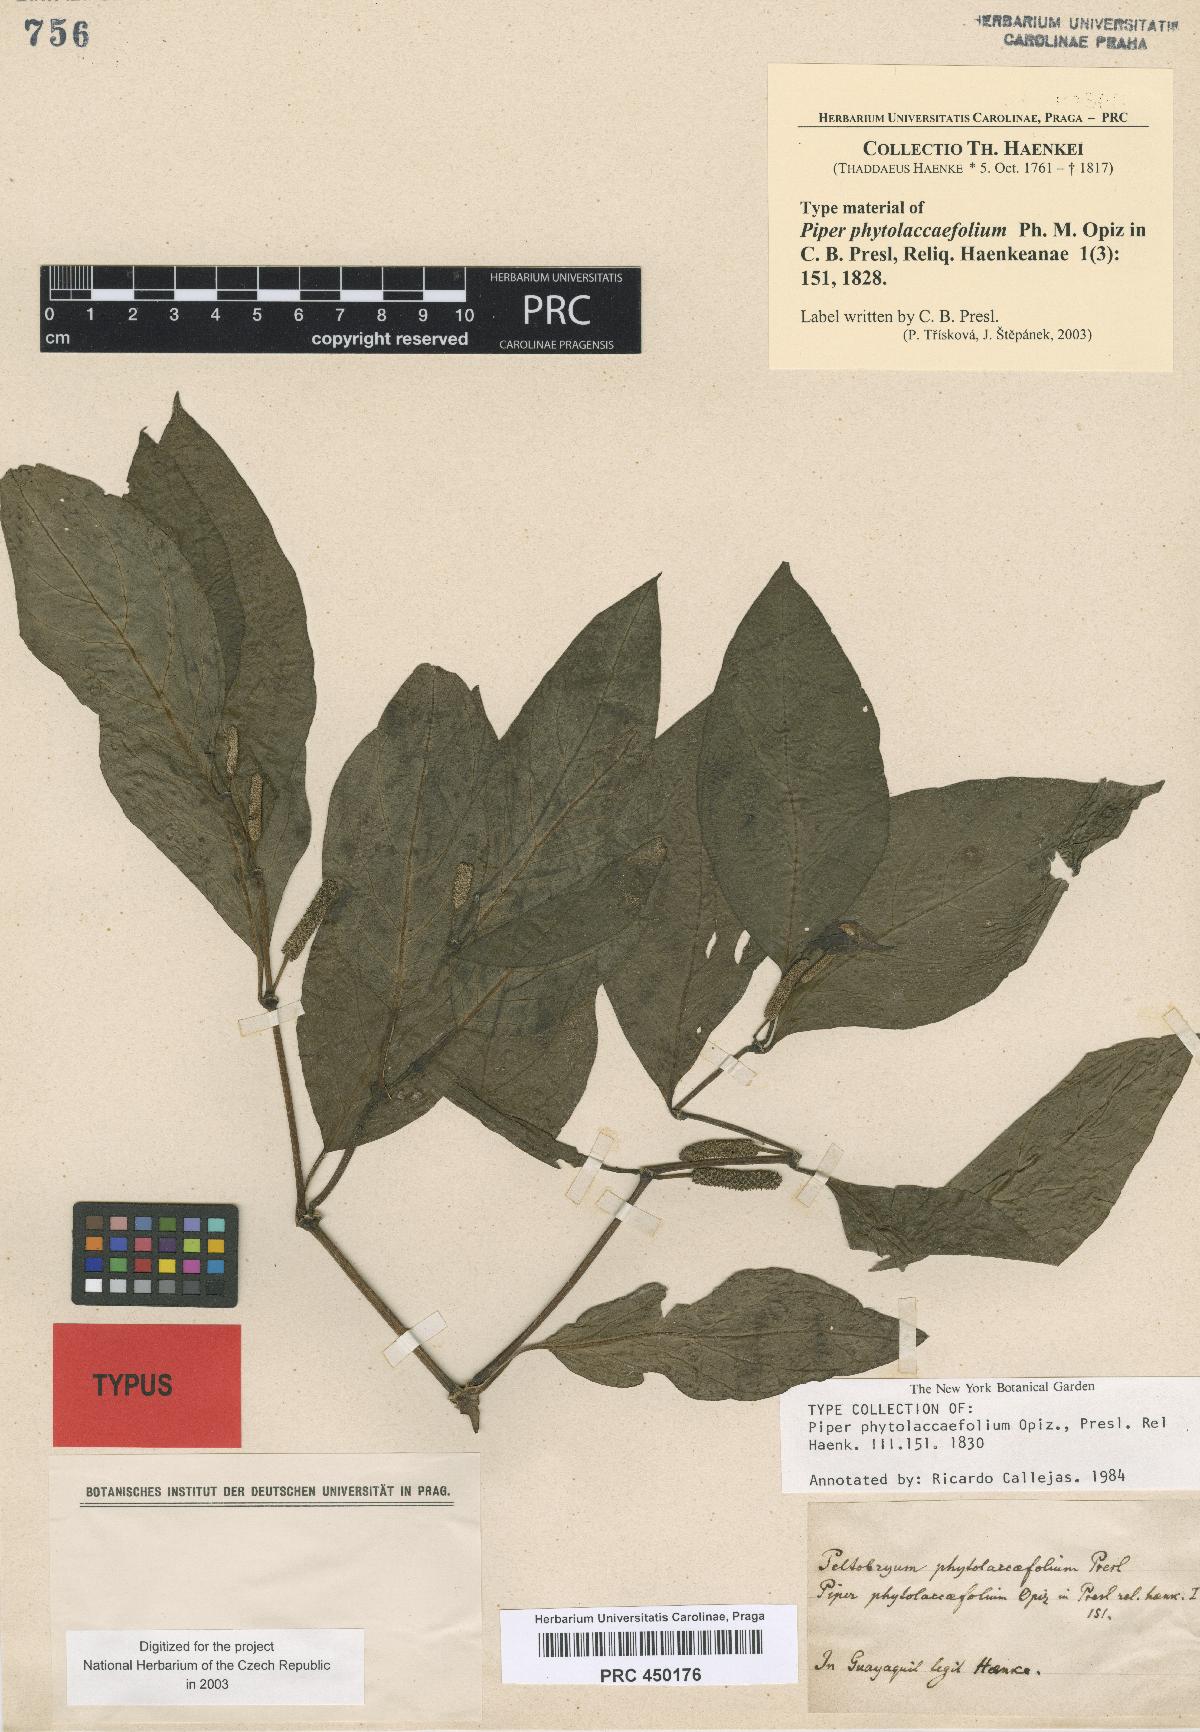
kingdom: Plantae
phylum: Tracheophyta
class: Magnoliopsida
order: Piperales
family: Piperaceae
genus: Piper
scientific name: Piper phytolaccifolium
